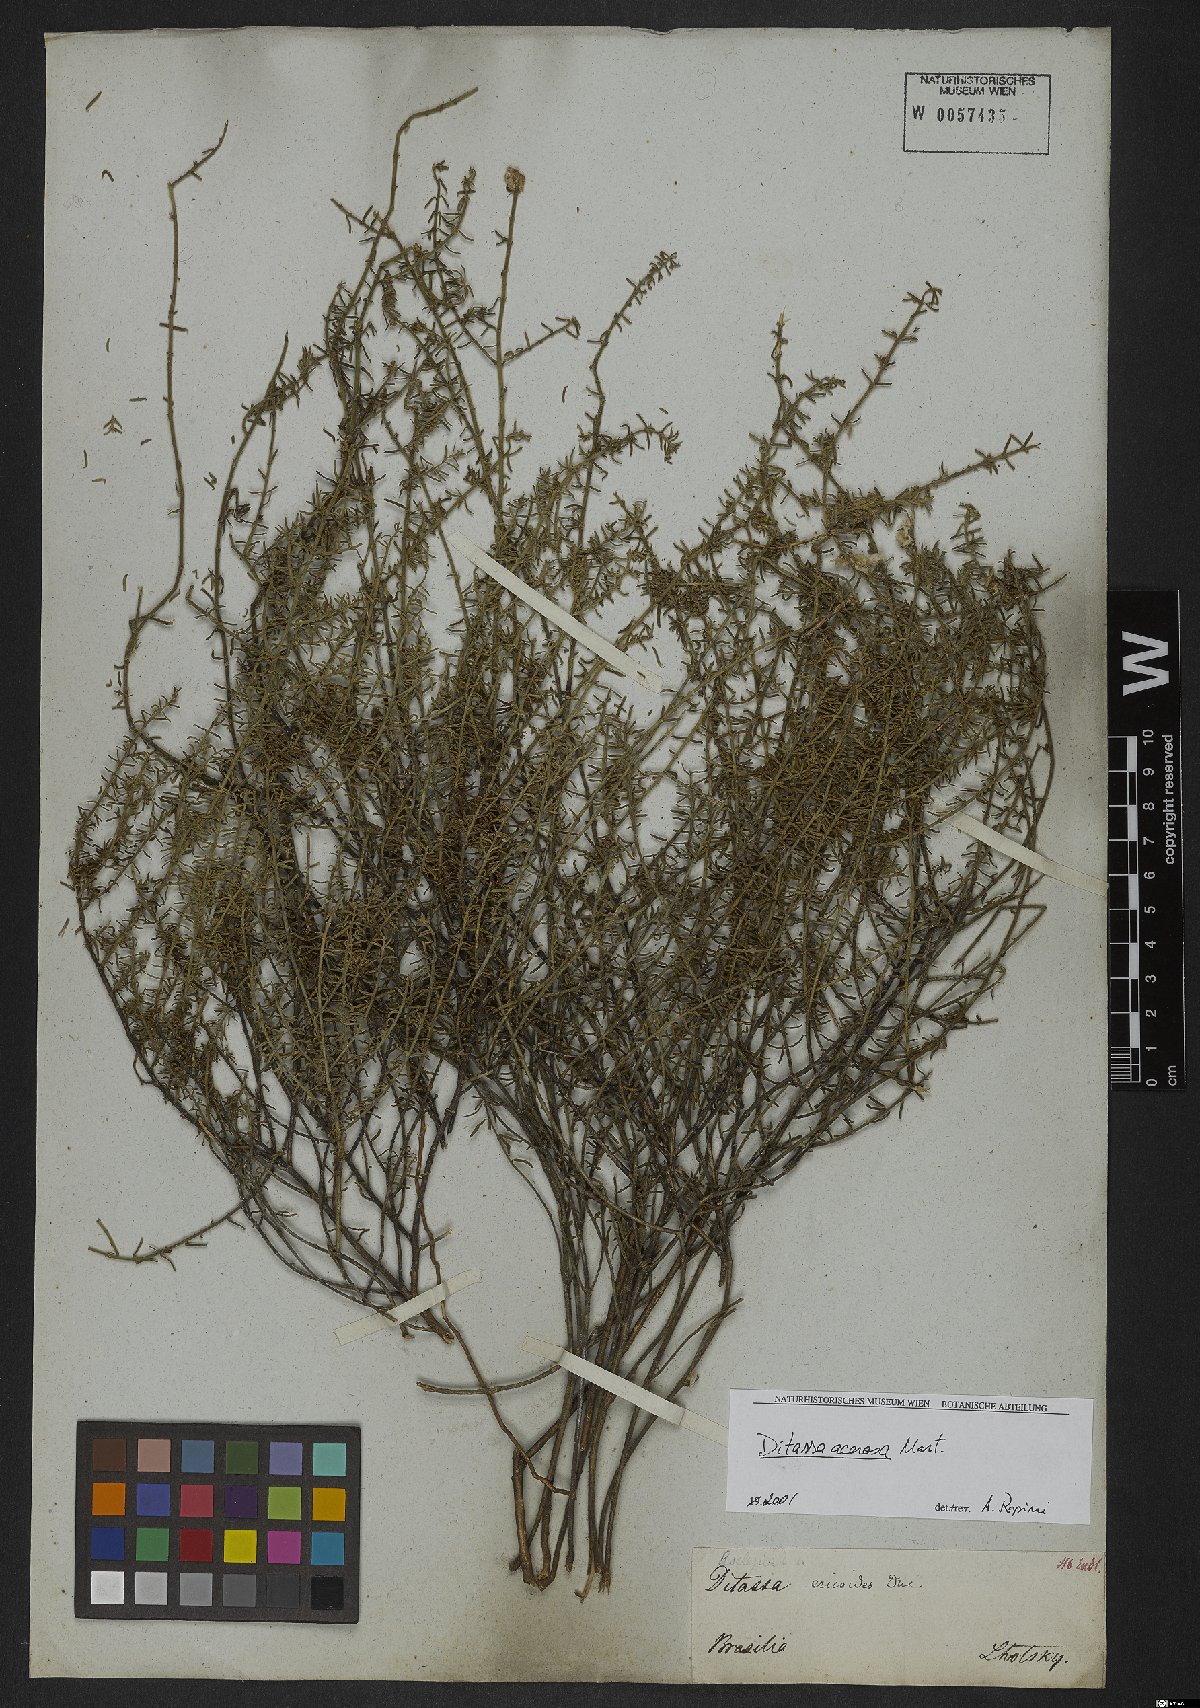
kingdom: Plantae
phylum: Tracheophyta
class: Magnoliopsida
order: Gentianales
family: Apocynaceae
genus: Minaria
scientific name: Minaria acerosa
